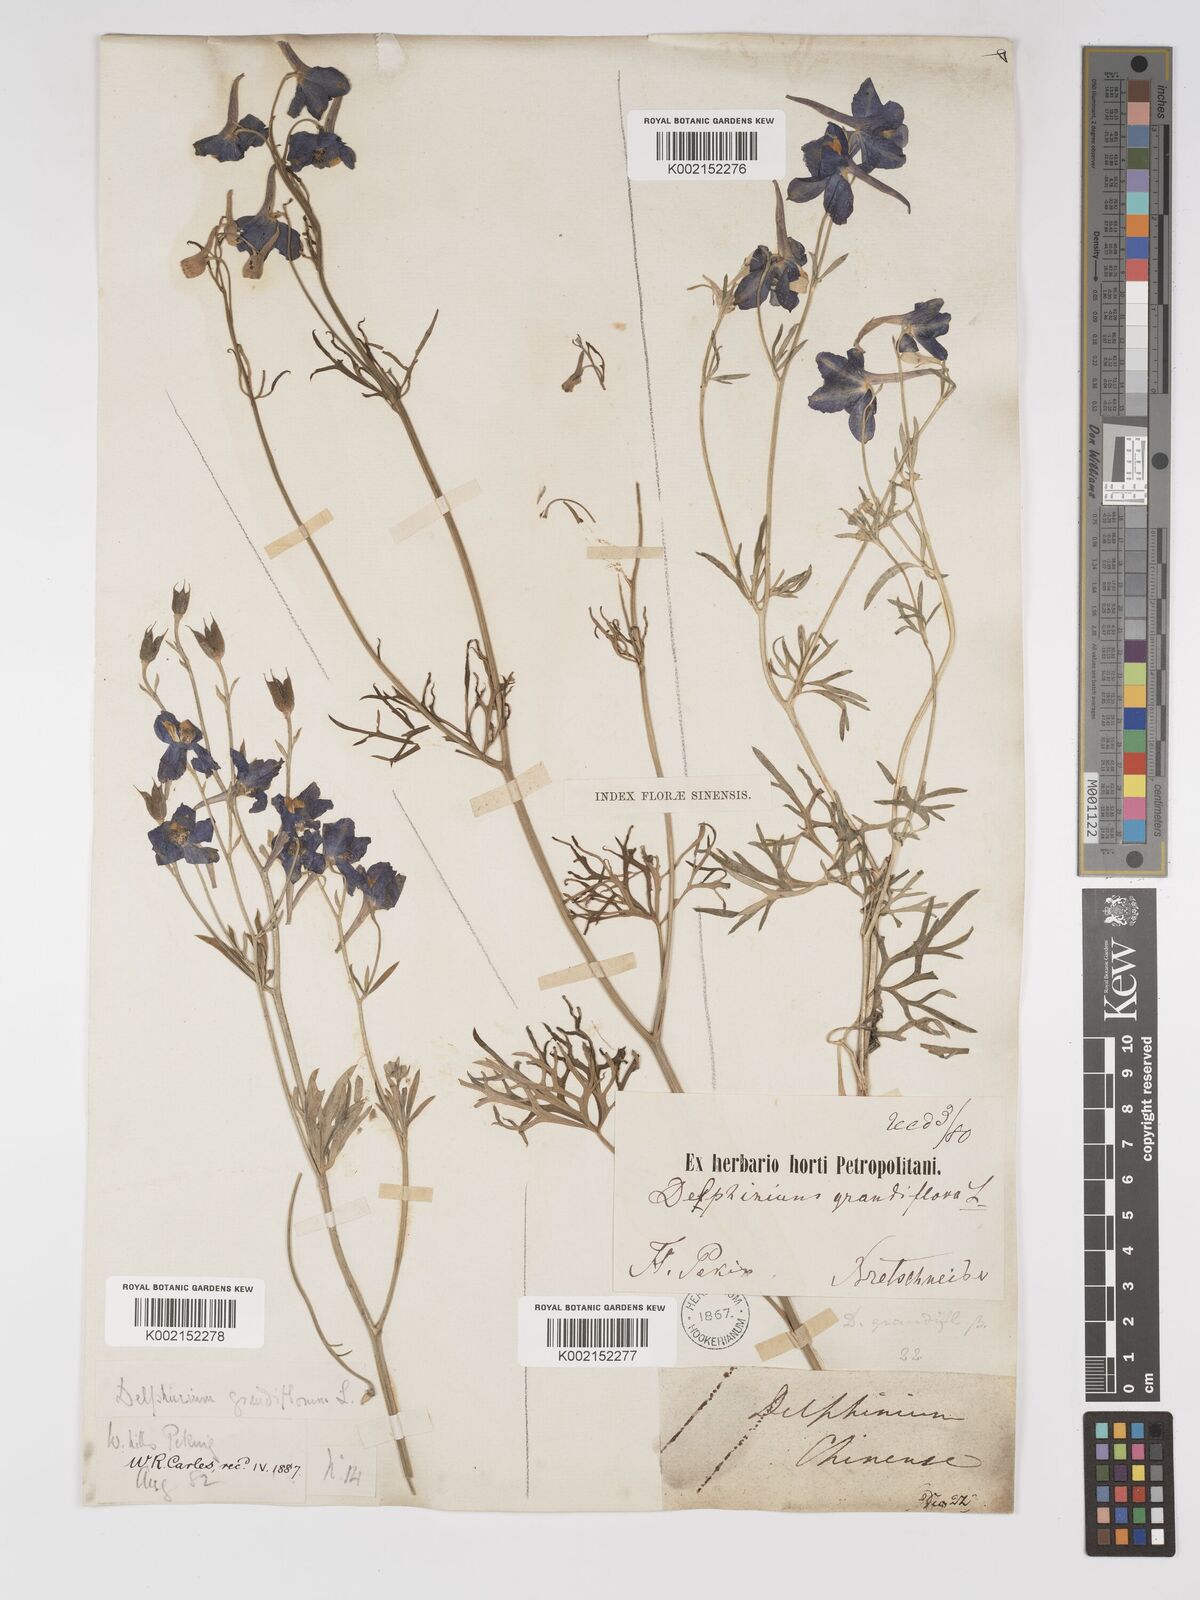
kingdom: Plantae
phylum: Tracheophyta
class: Magnoliopsida
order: Ranunculales
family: Ranunculaceae
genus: Delphinium
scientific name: Delphinium grandiflorum
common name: Siberian larkspur
